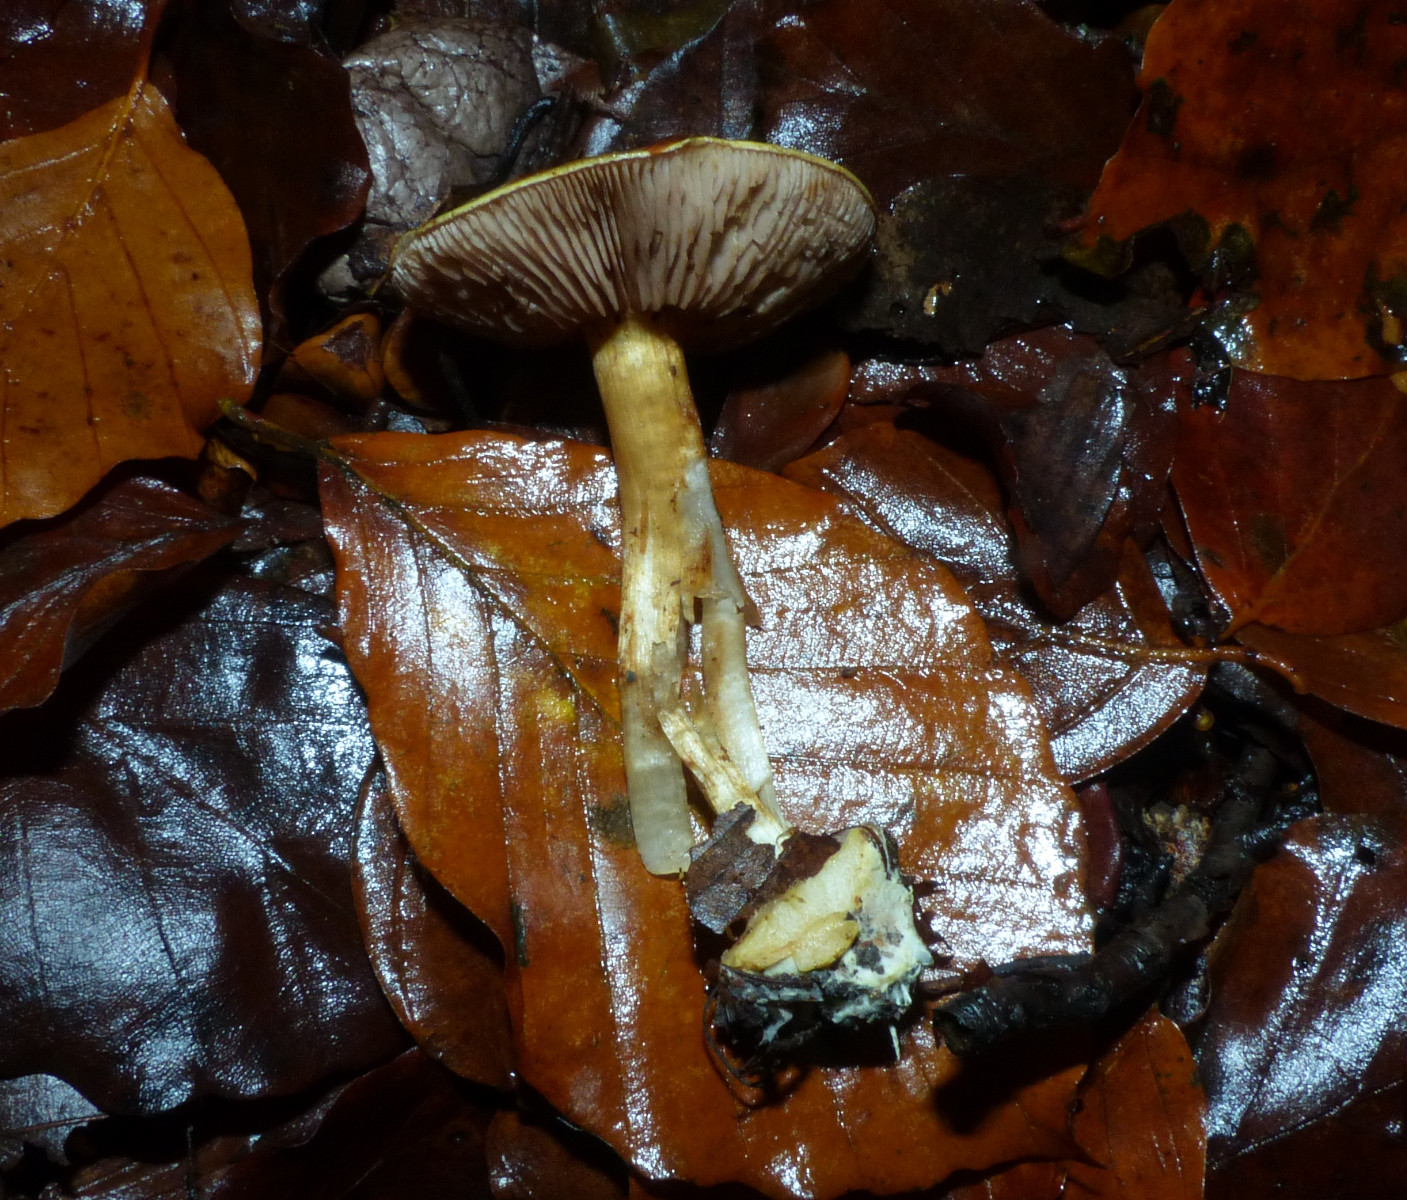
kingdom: Fungi
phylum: Basidiomycota
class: Agaricomycetes
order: Agaricales
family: Cortinariaceae
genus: Calonarius
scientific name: Calonarius callochrous
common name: lillabladet slørhat
